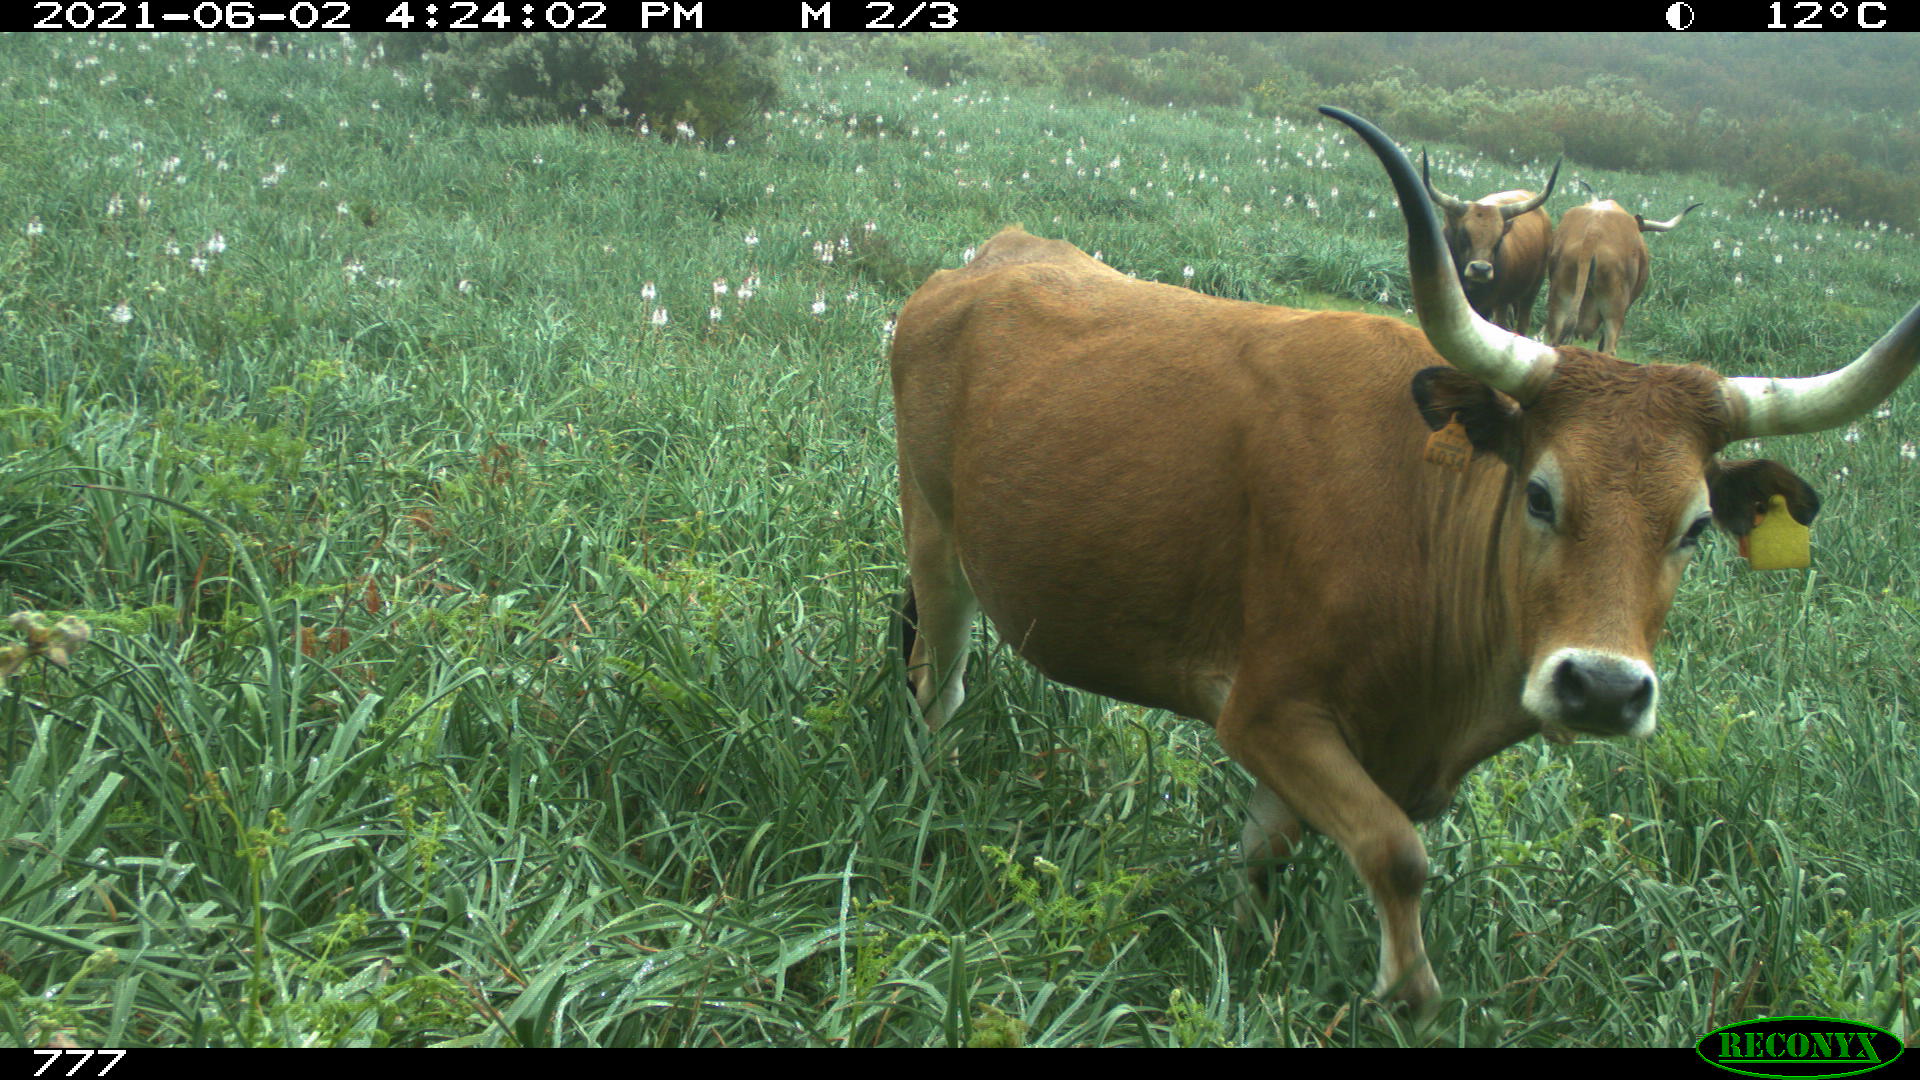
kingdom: Animalia
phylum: Chordata
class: Mammalia
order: Artiodactyla
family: Bovidae
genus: Bos
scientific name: Bos taurus
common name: Domesticated cattle
